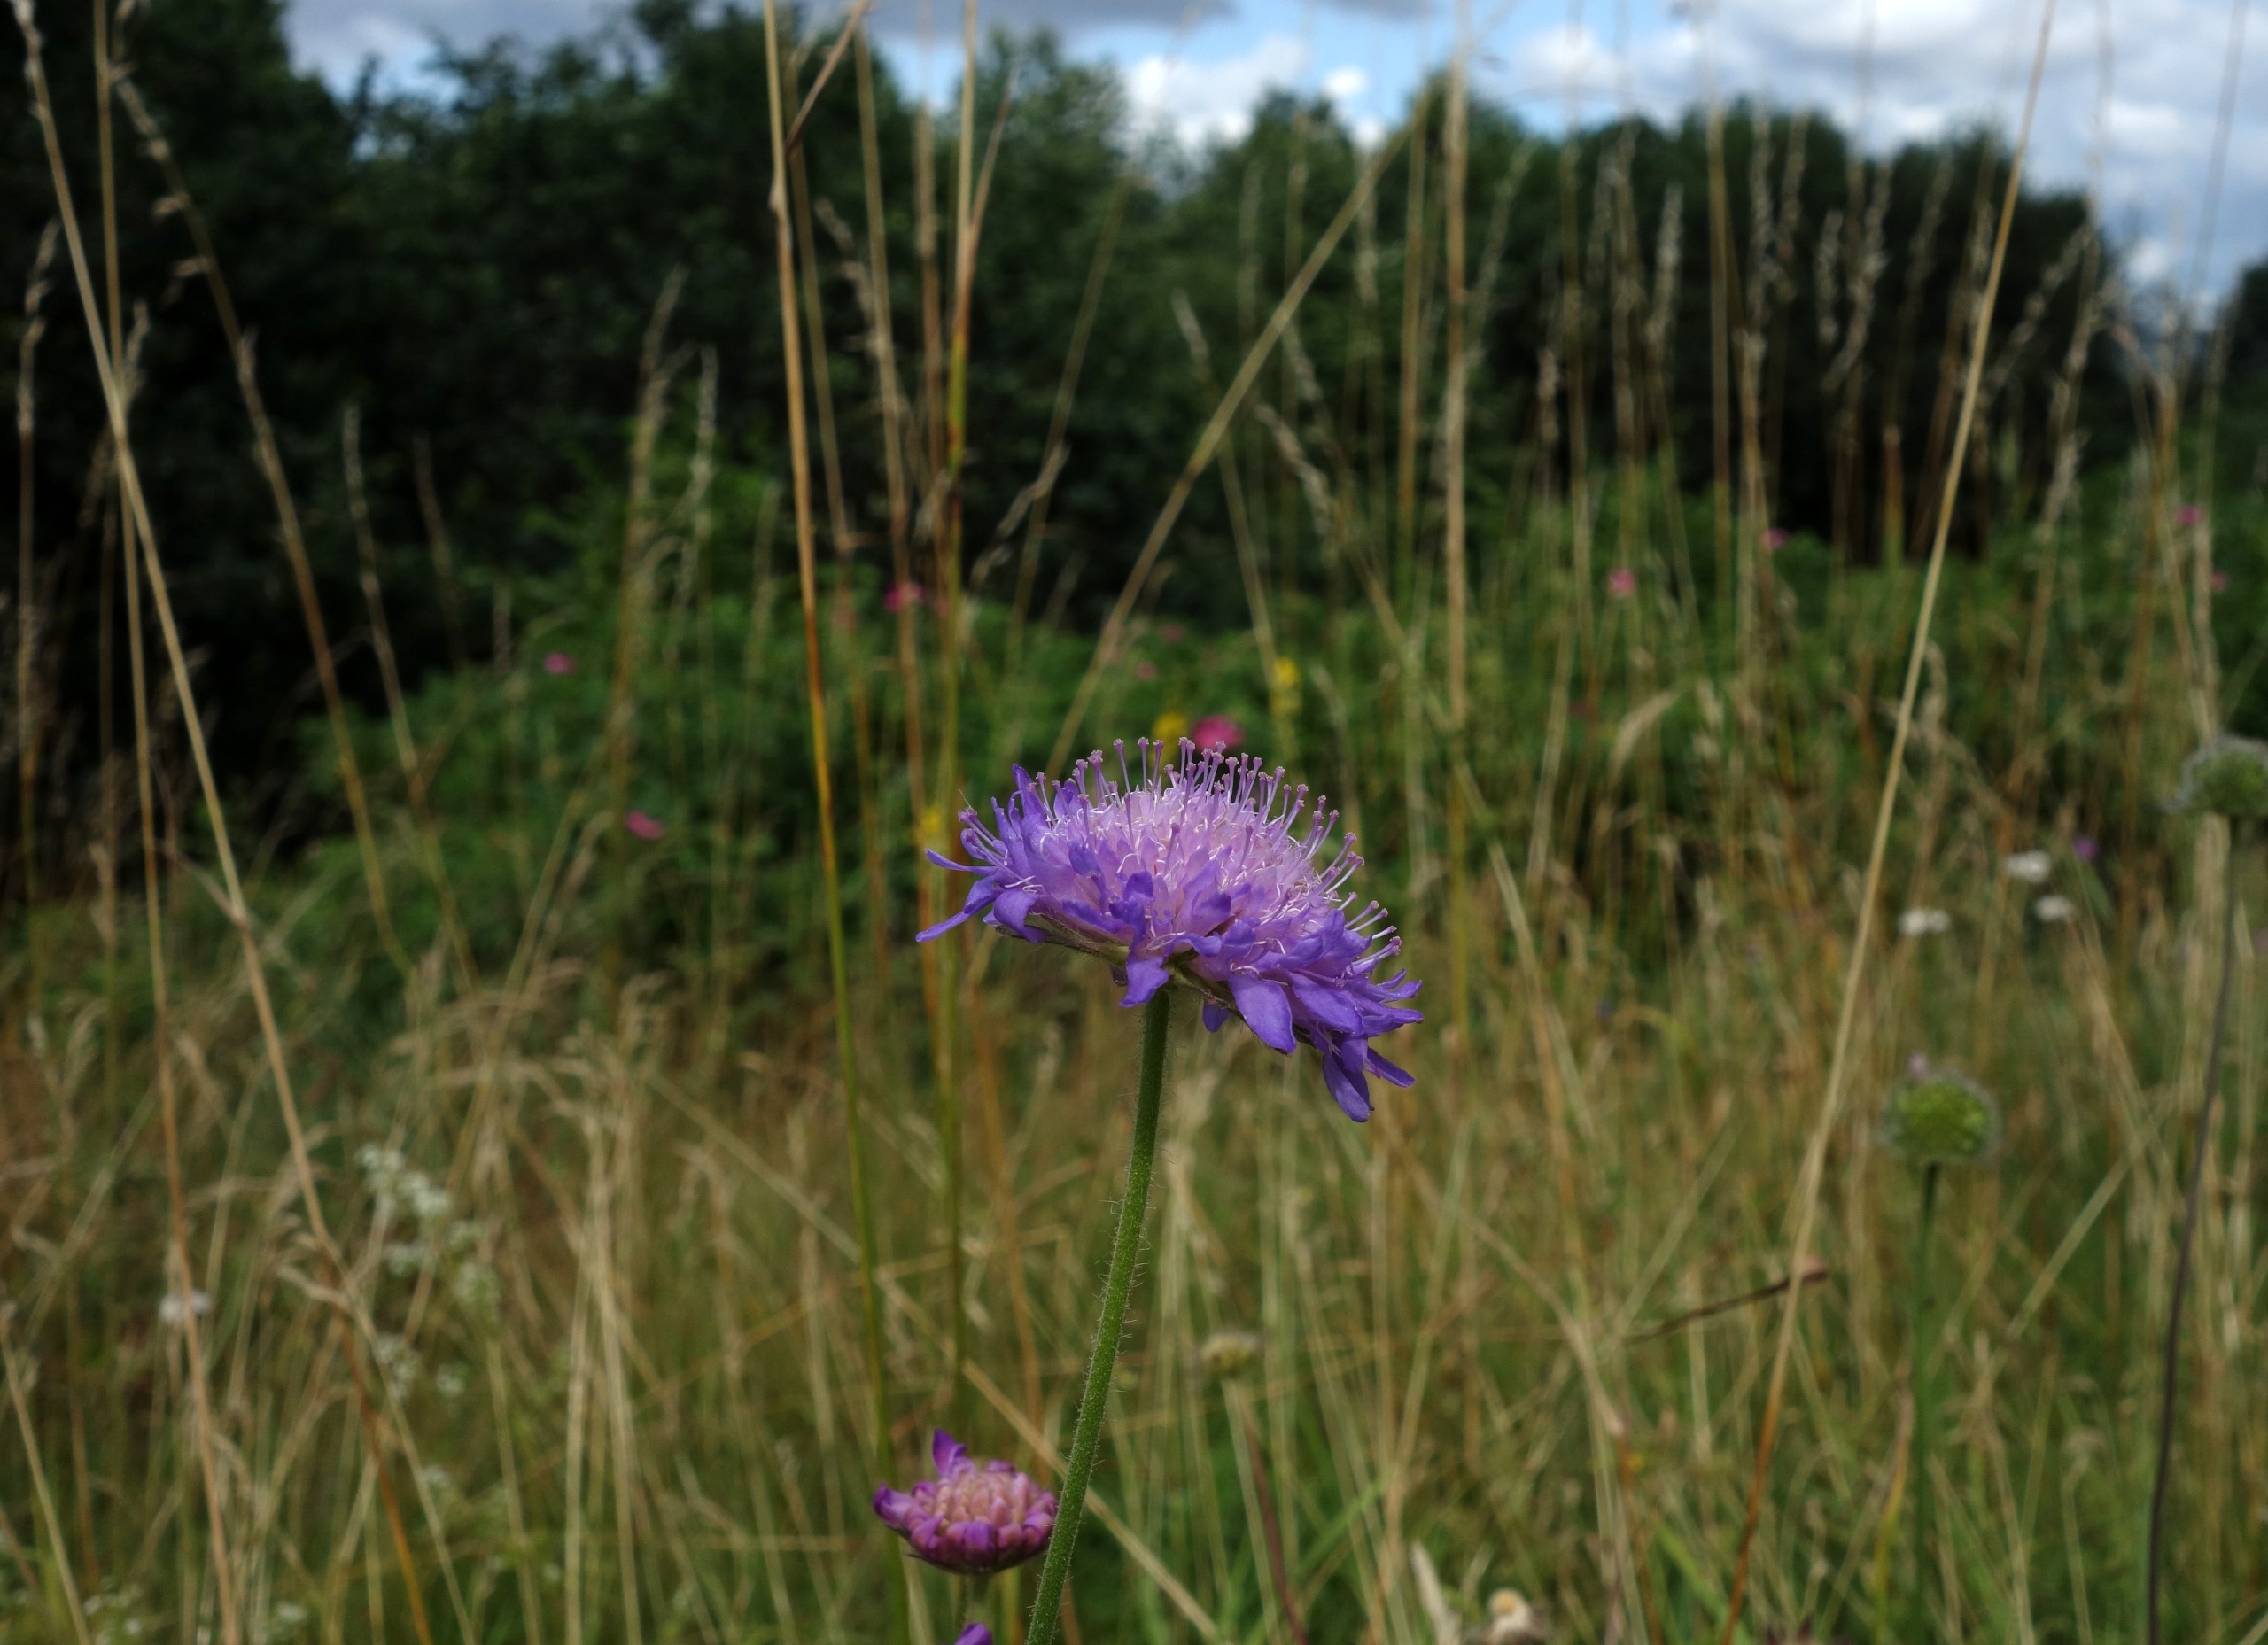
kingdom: Plantae
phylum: Tracheophyta
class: Magnoliopsida
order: Dipsacales
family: Caprifoliaceae
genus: Knautia
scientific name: Knautia arvensis
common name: Blåhat
